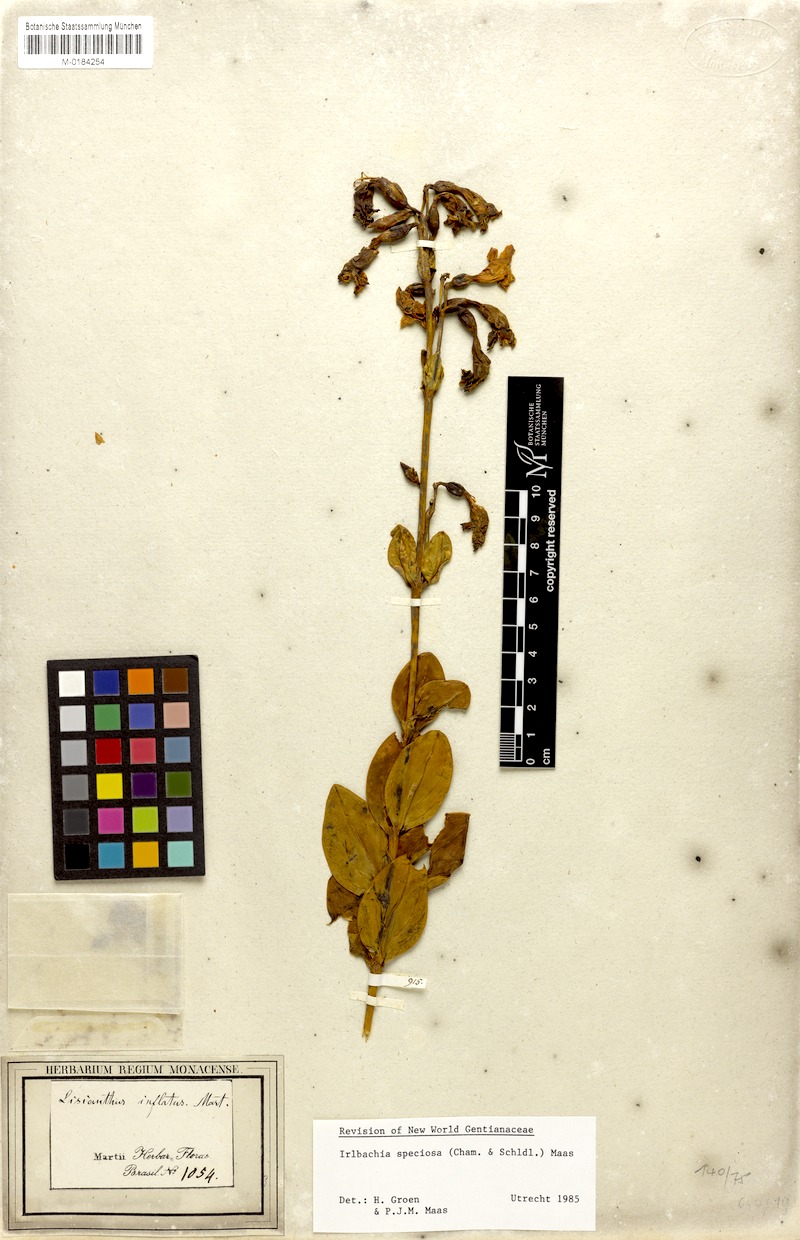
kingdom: Plantae
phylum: Tracheophyta
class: Magnoliopsida
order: Gentianales
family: Gentianaceae
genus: Calolisianthus
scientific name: Calolisianthus speciosus
